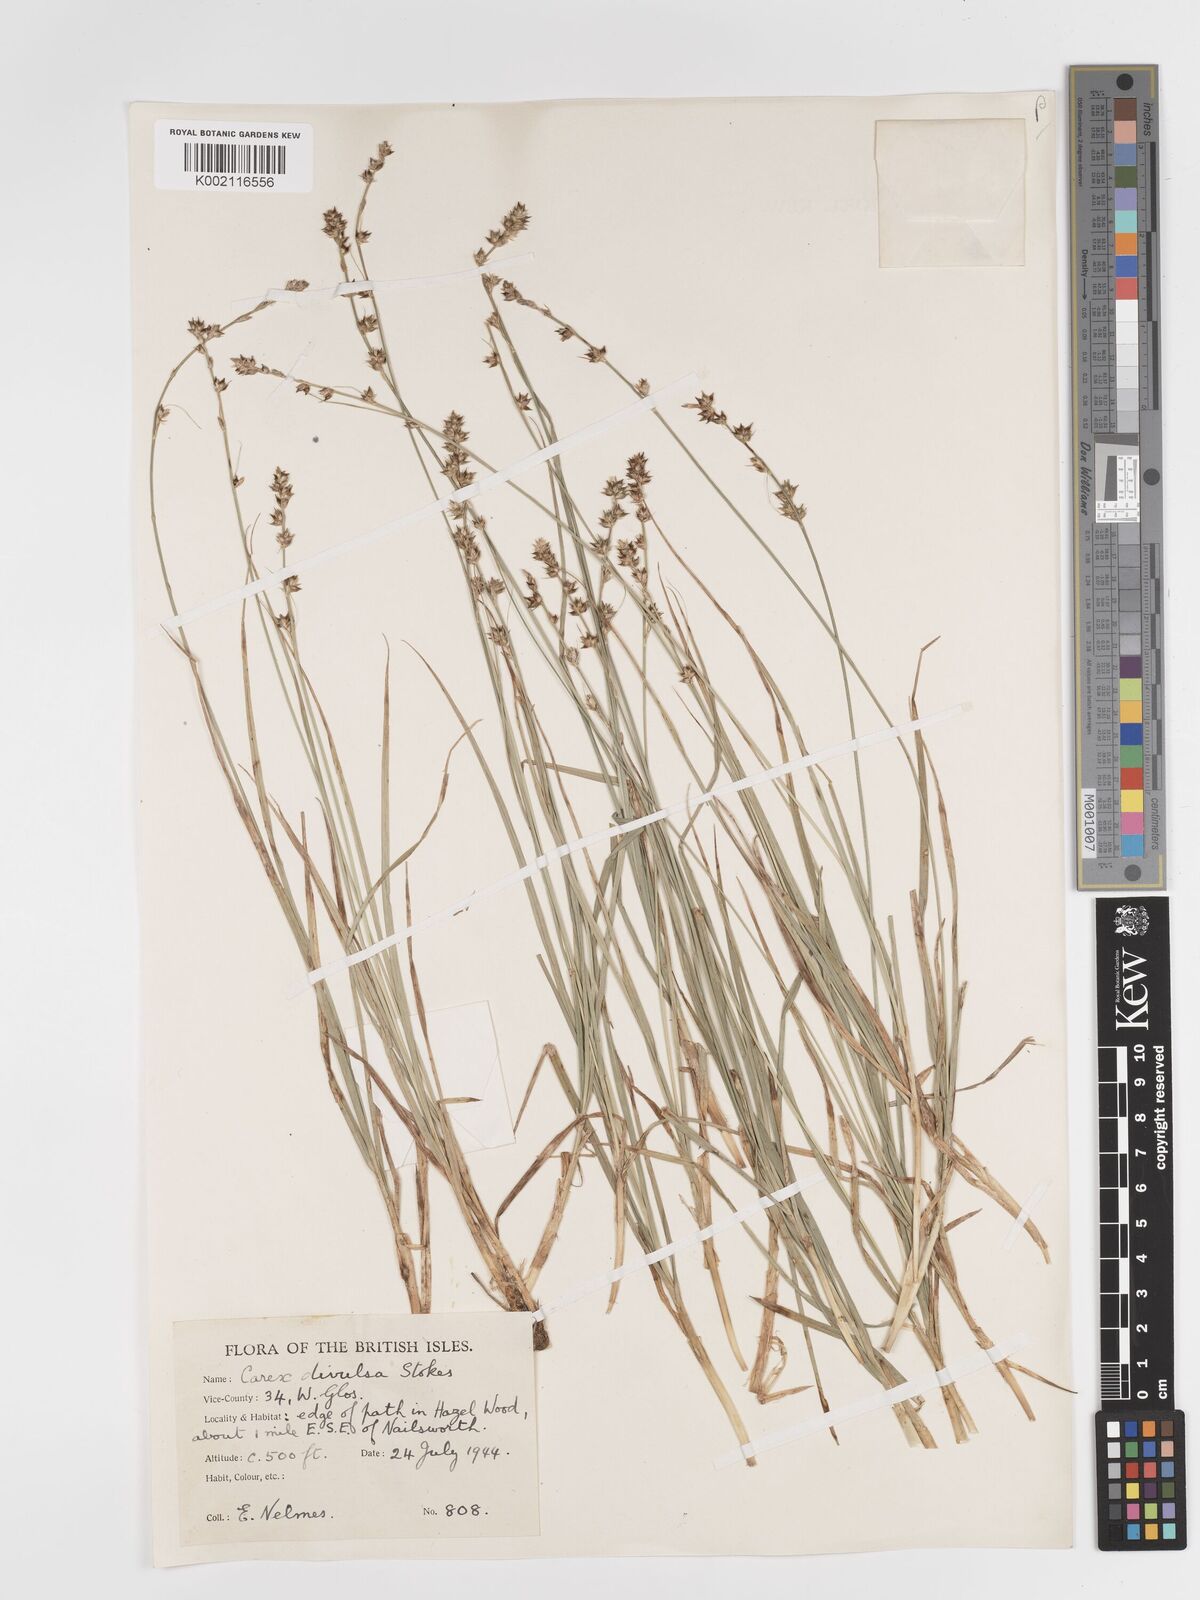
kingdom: Plantae
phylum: Tracheophyta
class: Liliopsida
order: Poales
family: Cyperaceae
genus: Carex
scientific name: Carex divulsa
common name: Grassland sedge
